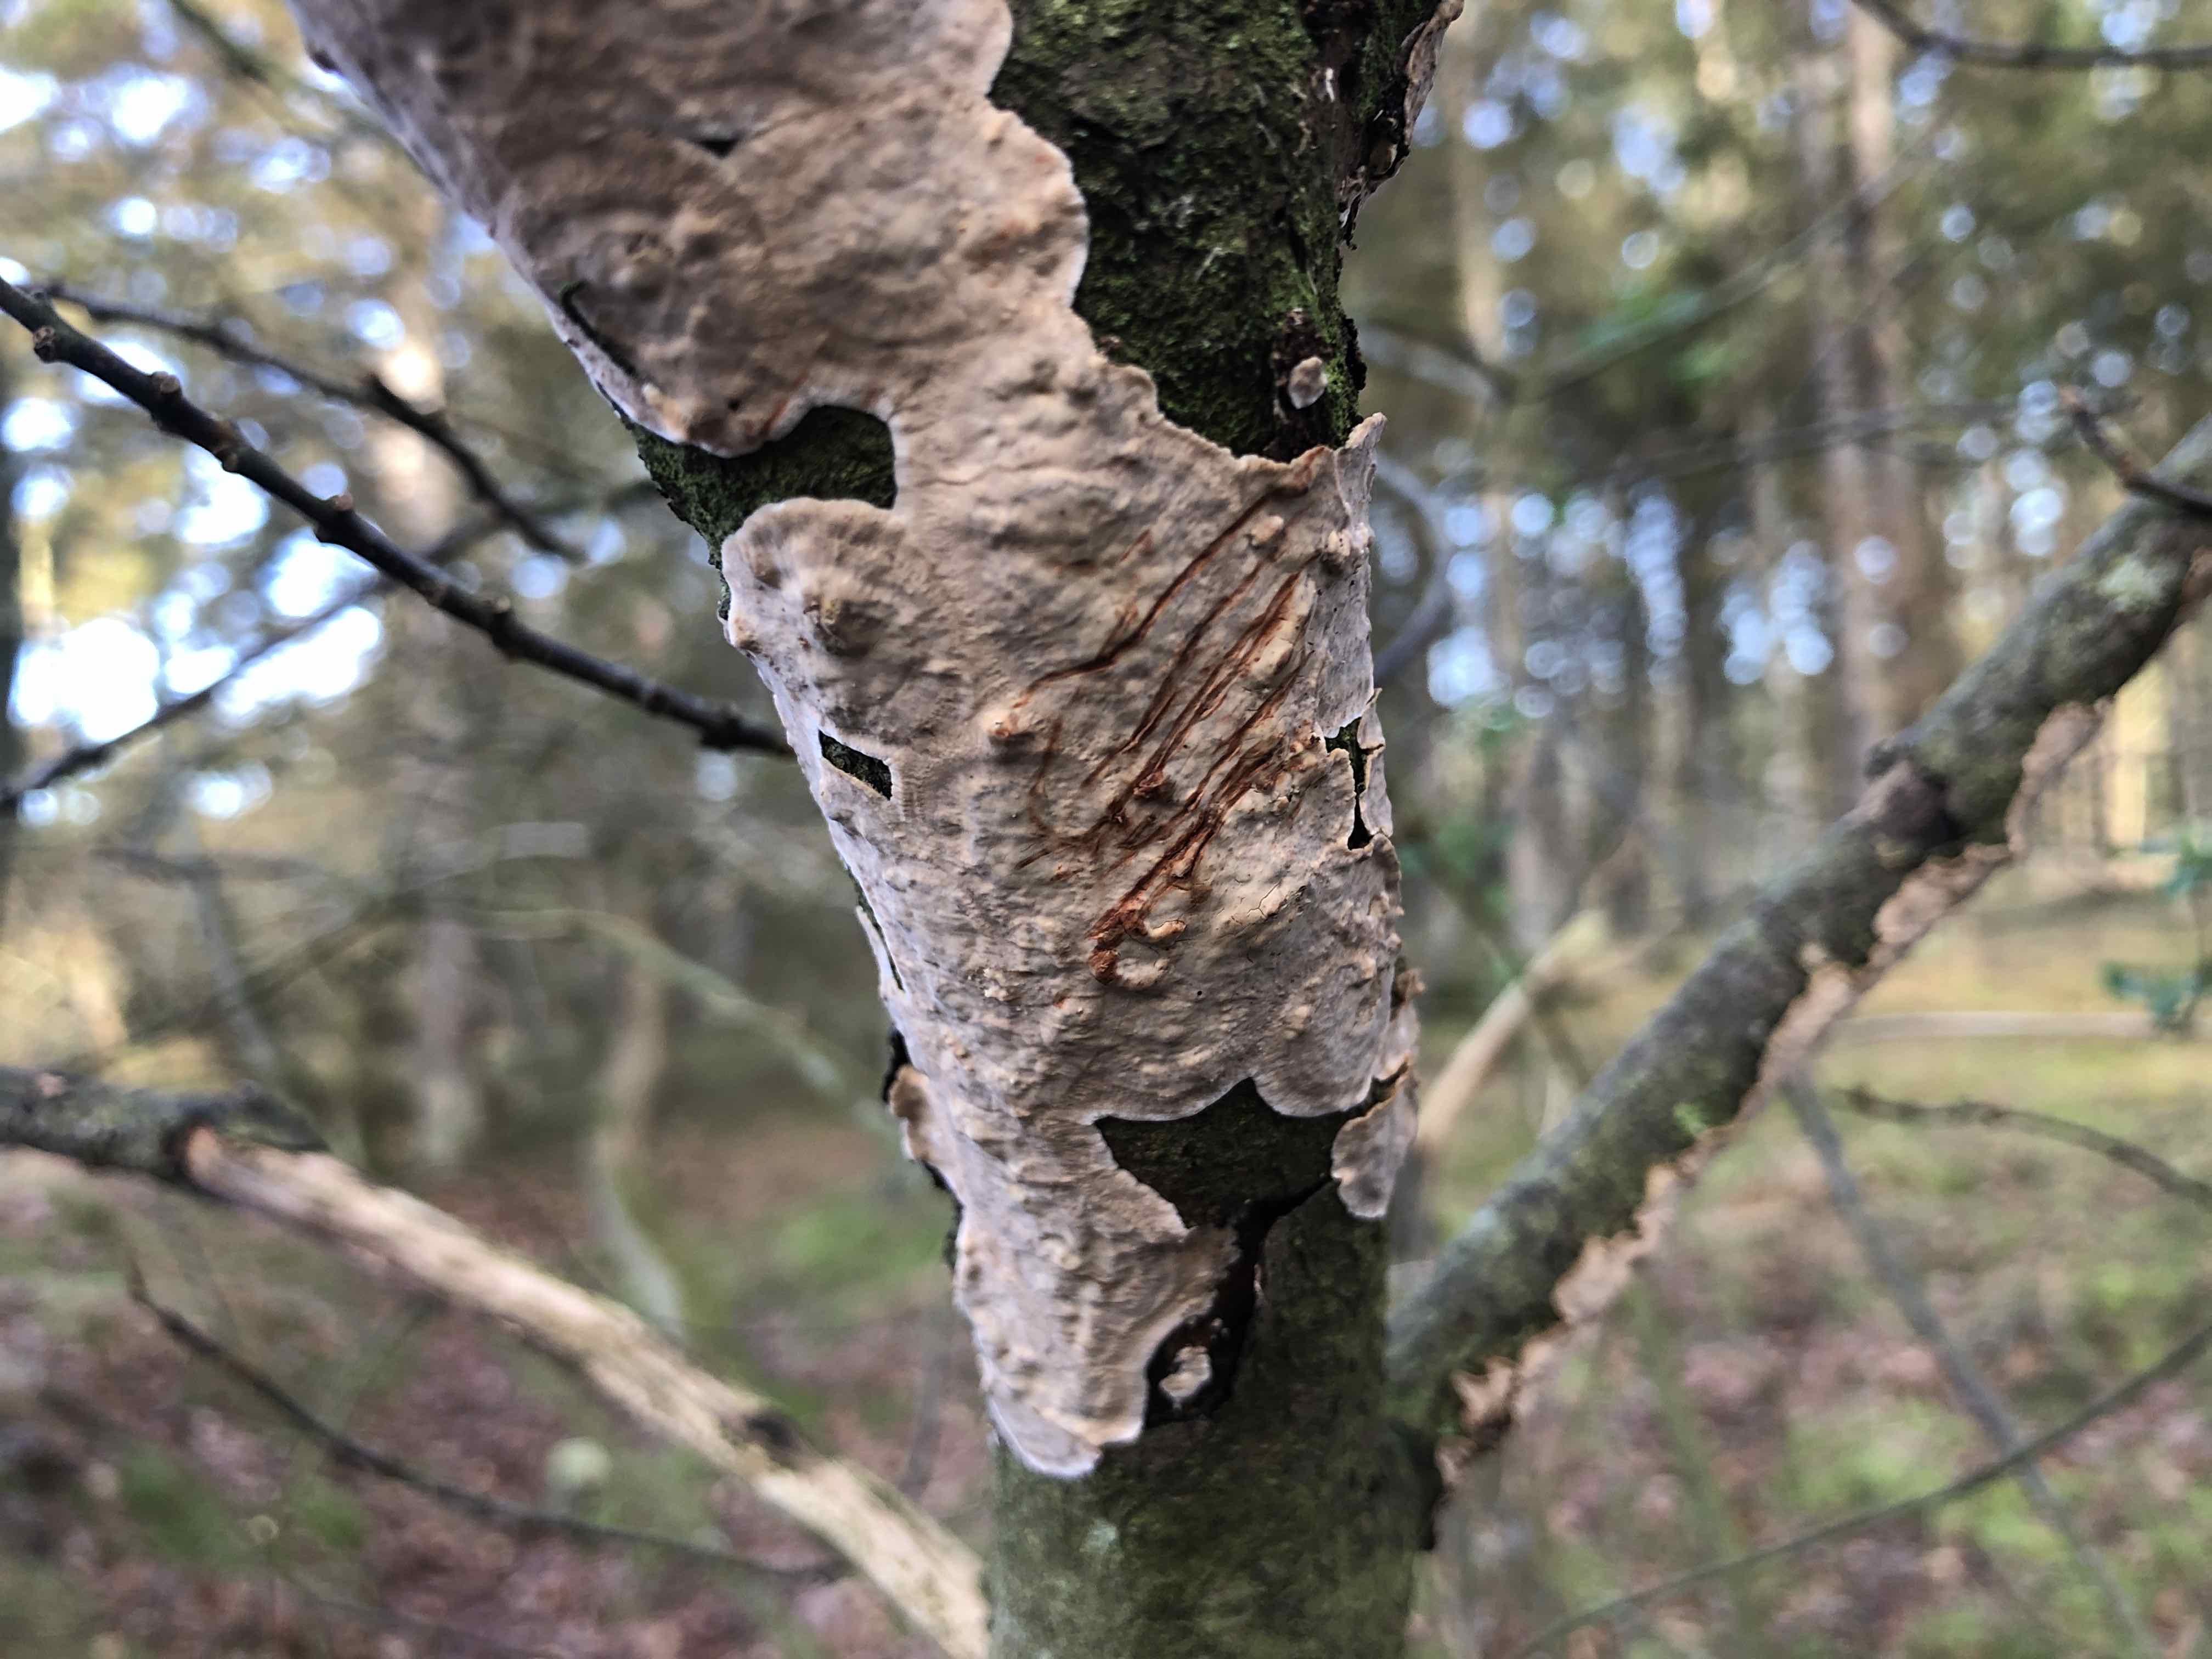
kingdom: Fungi
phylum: Basidiomycota
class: Agaricomycetes
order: Russulales
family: Stereaceae
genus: Stereum
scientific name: Stereum rugosum
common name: rynket lædersvamp
